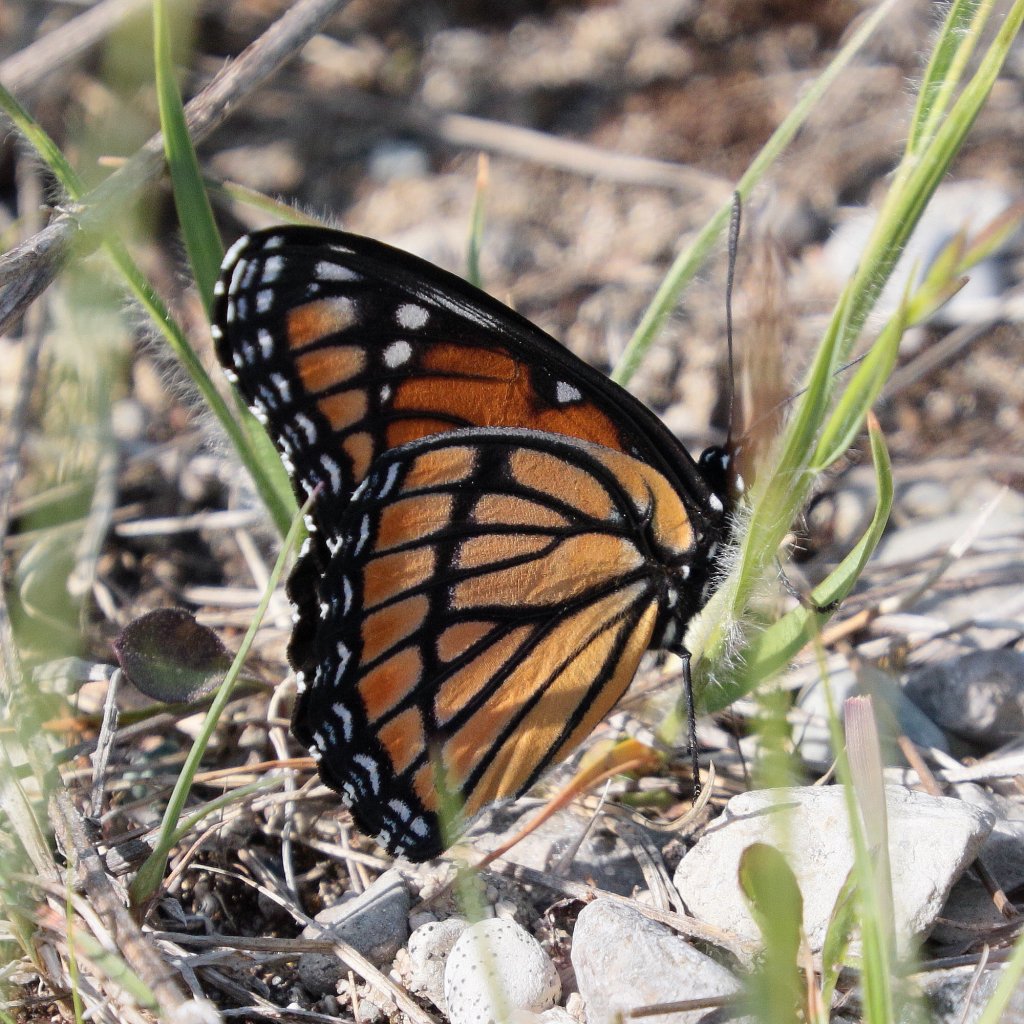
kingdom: Animalia
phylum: Arthropoda
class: Insecta
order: Lepidoptera
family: Nymphalidae
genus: Limenitis
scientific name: Limenitis archippus
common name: Viceroy
